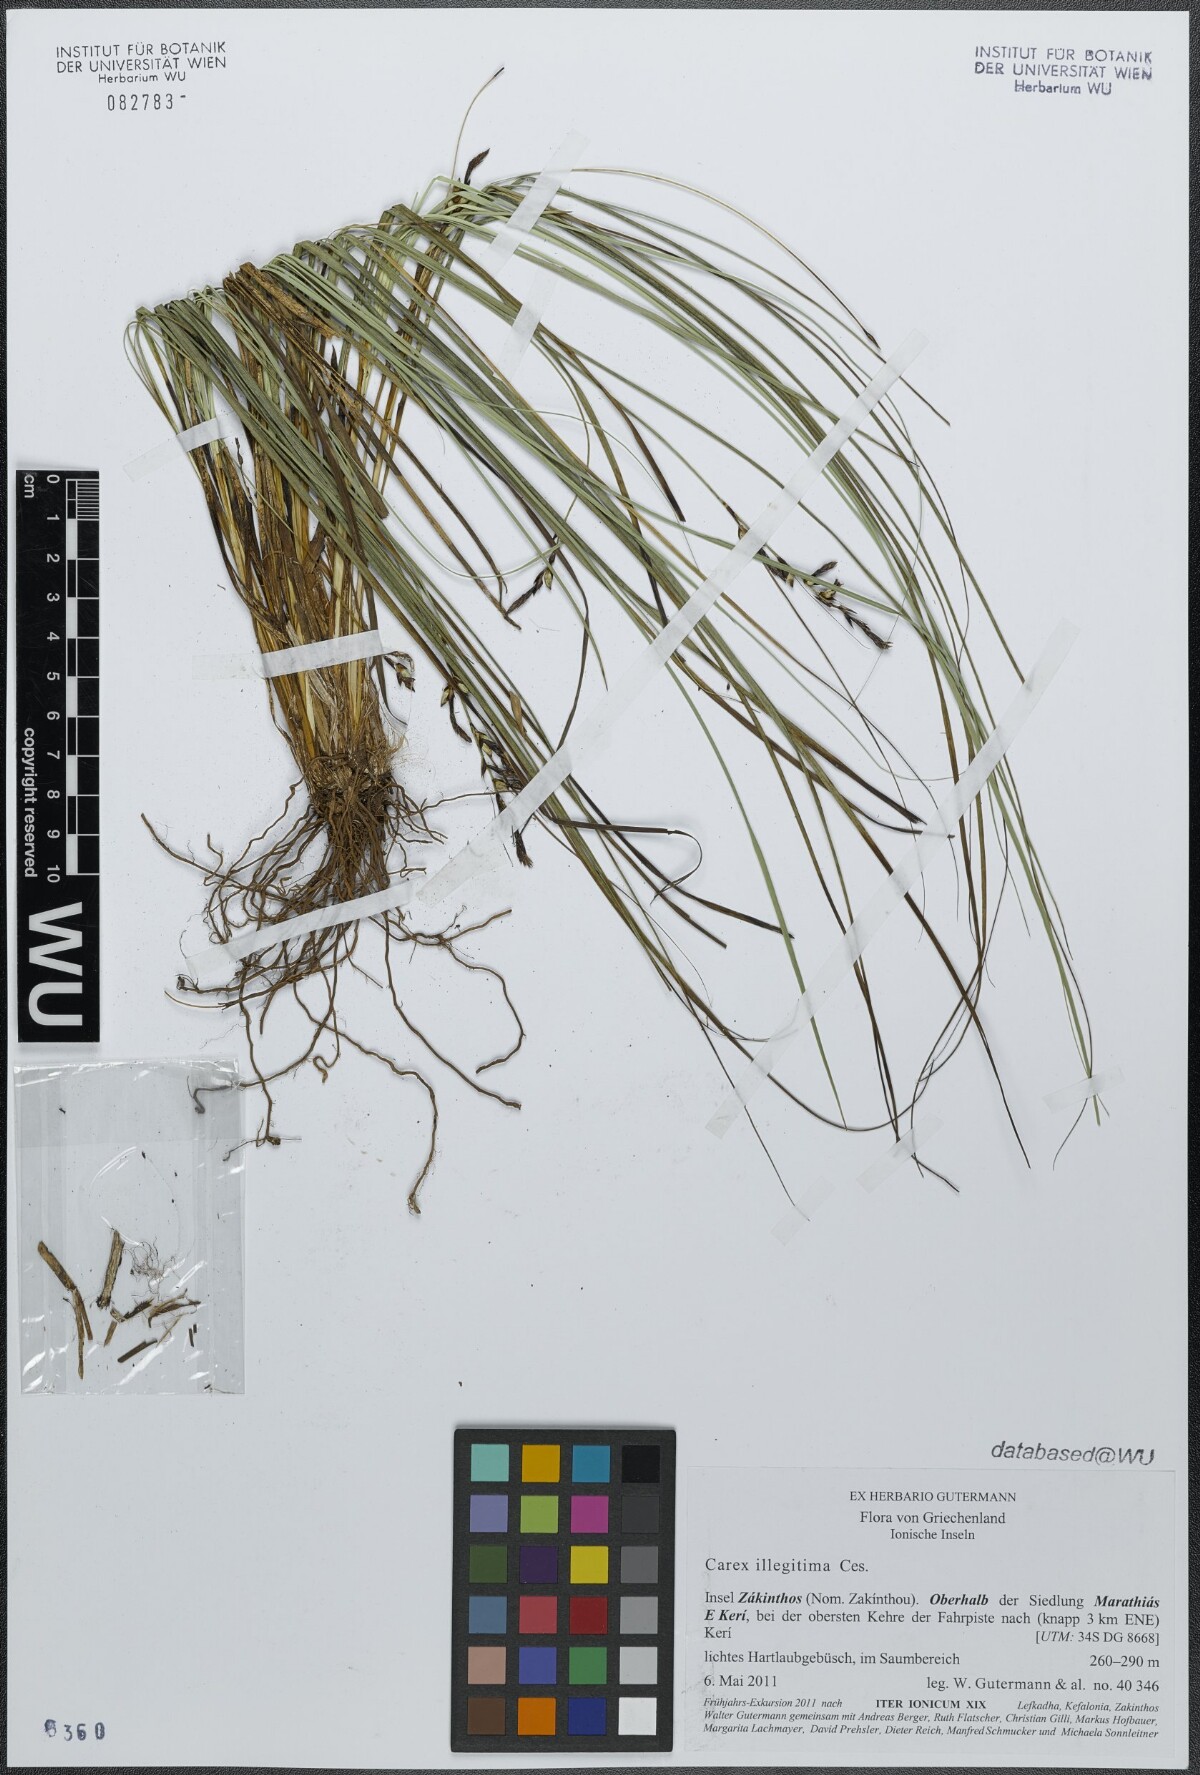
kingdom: Plantae
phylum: Tracheophyta
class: Liliopsida
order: Poales
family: Cyperaceae
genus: Carex
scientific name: Carex illegitima
